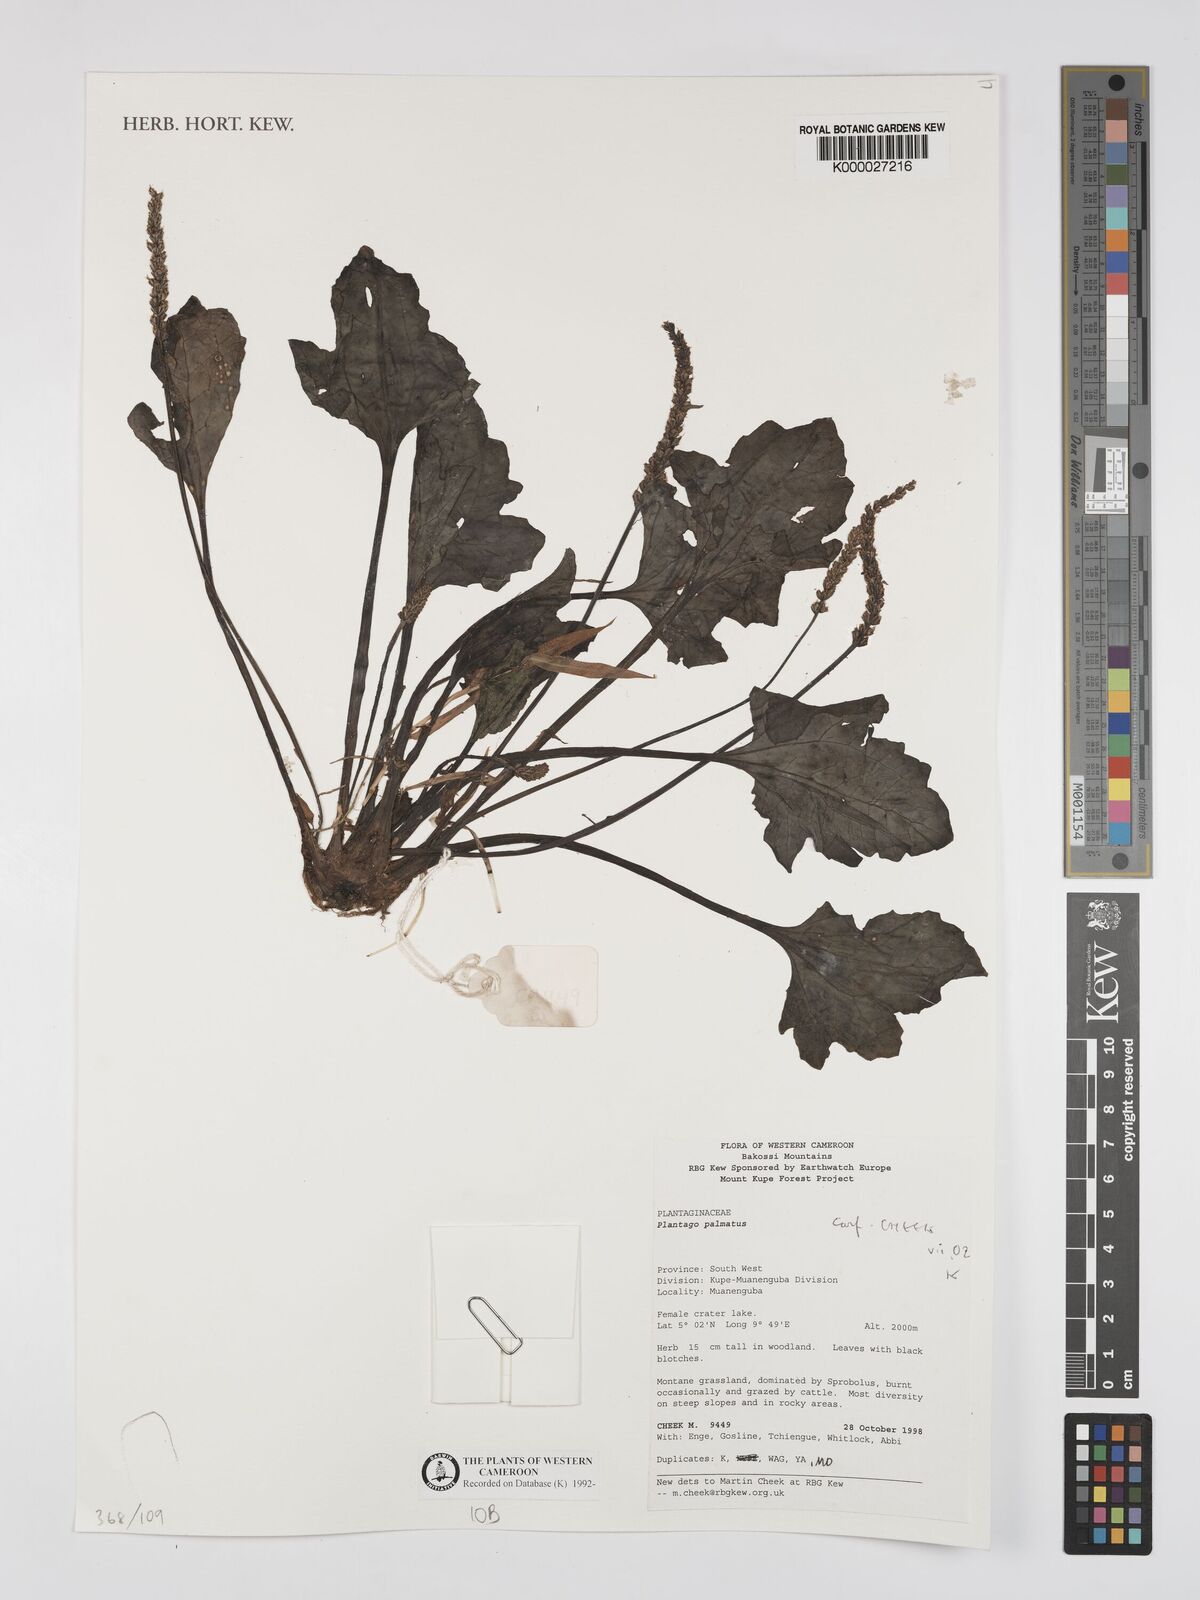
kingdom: Plantae
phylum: Tracheophyta
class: Magnoliopsida
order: Lamiales
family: Plantaginaceae
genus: Plantago
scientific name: Plantago palmata
